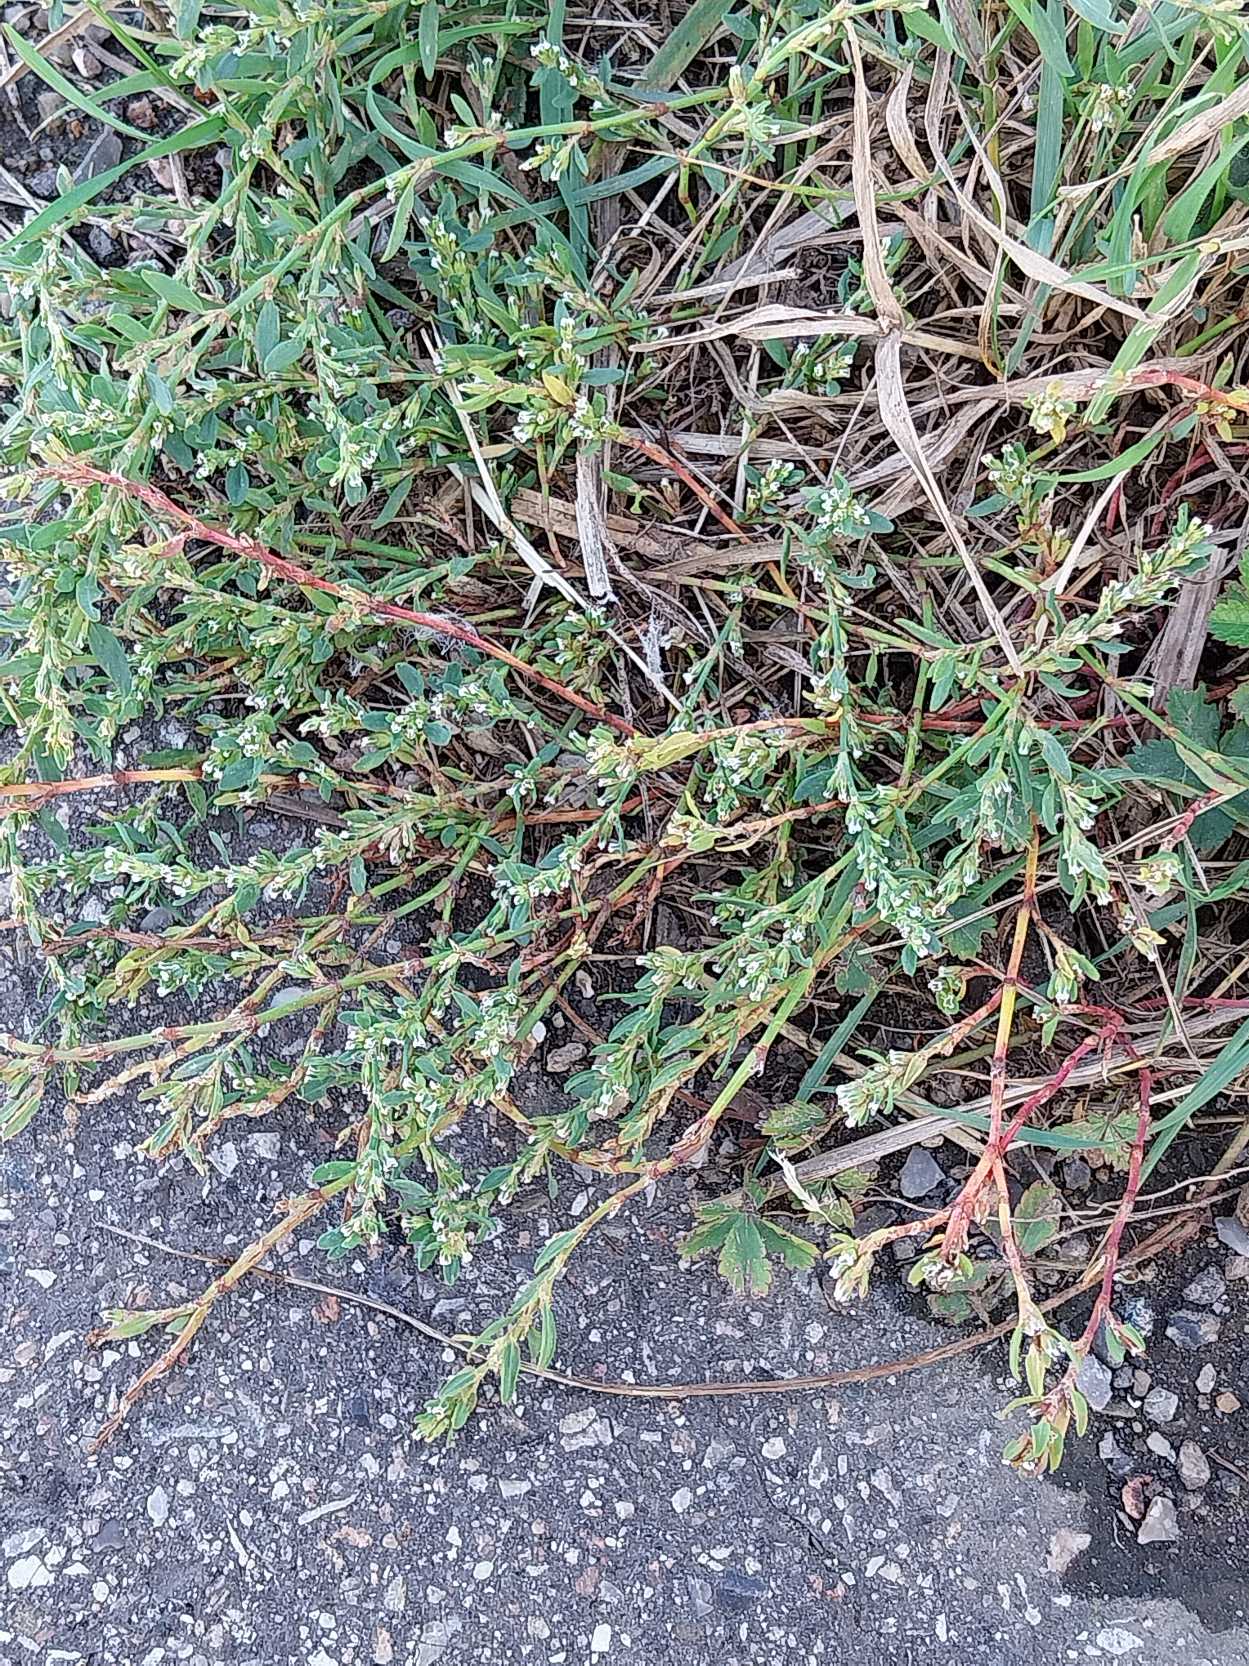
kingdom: Plantae
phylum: Tracheophyta
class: Magnoliopsida
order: Caryophyllales
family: Polygonaceae
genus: Polygonum
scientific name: Polygonum arenastrum
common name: Liggende vej-pileurt
